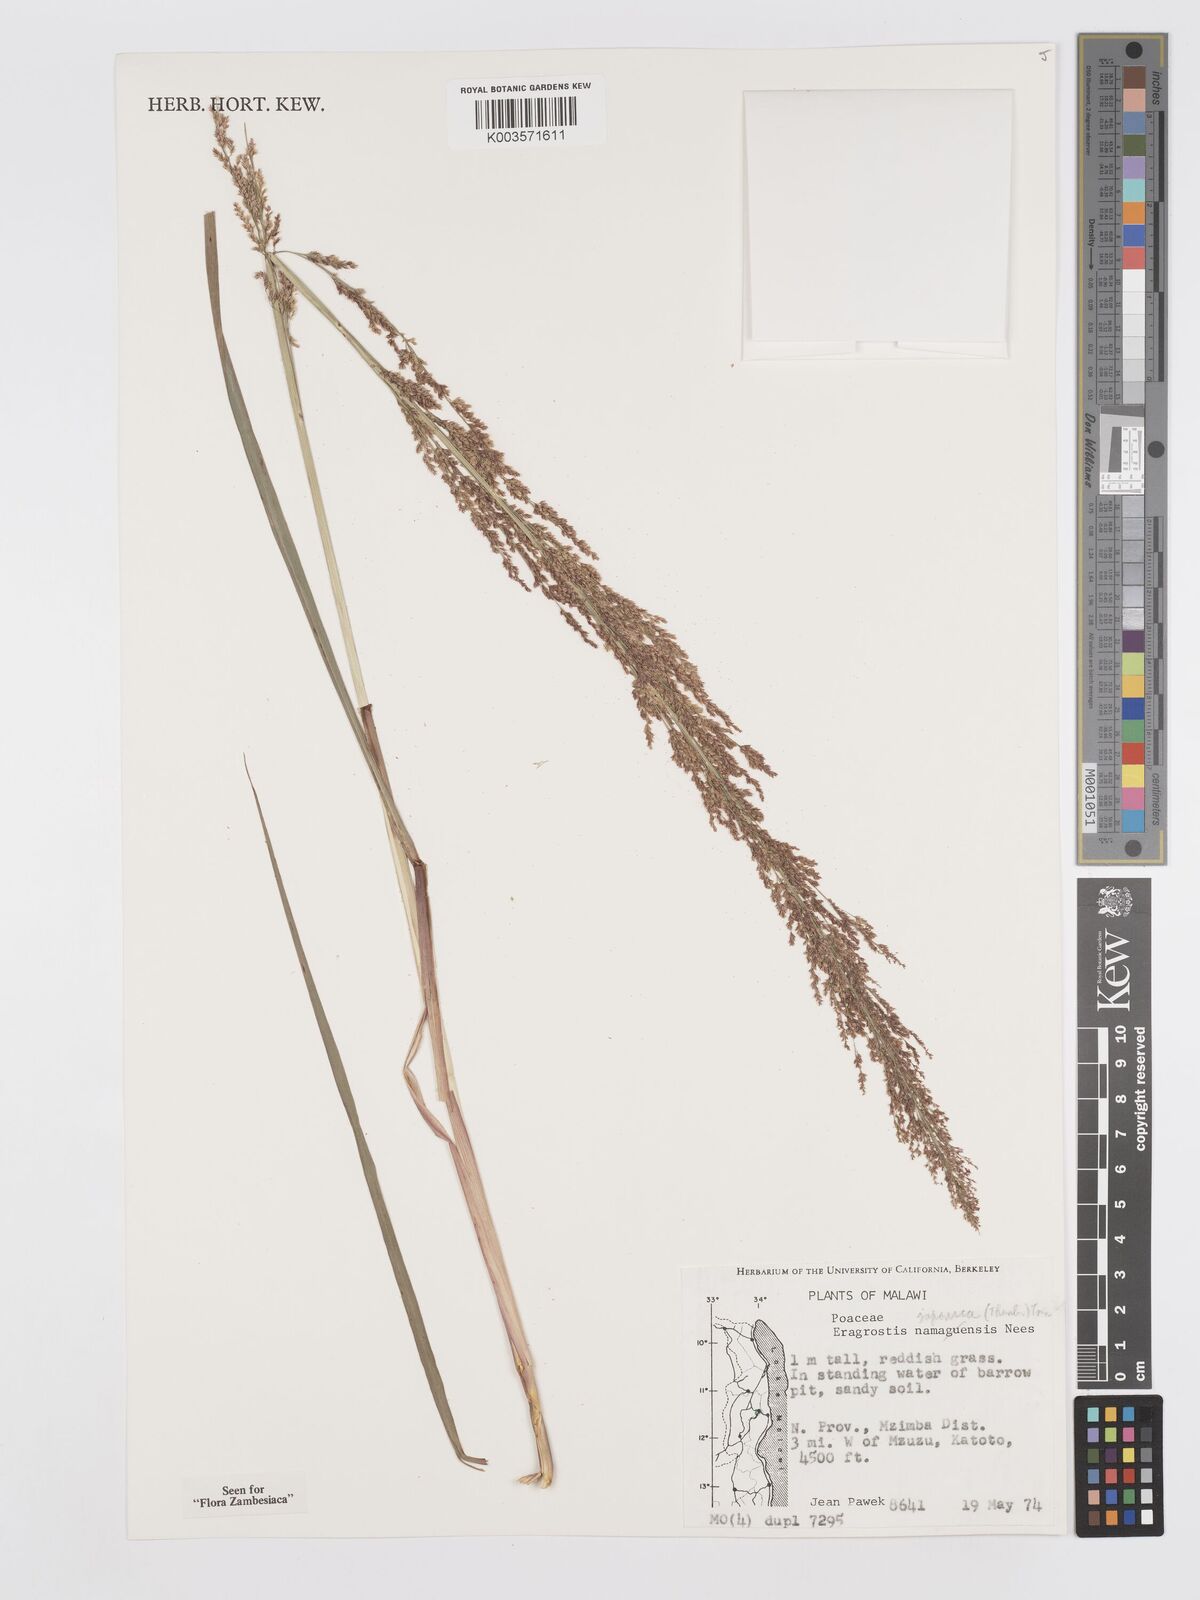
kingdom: Plantae
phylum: Tracheophyta
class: Liliopsida
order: Poales
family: Poaceae
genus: Eragrostis
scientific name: Eragrostis japonica
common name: Pond lovegrass
